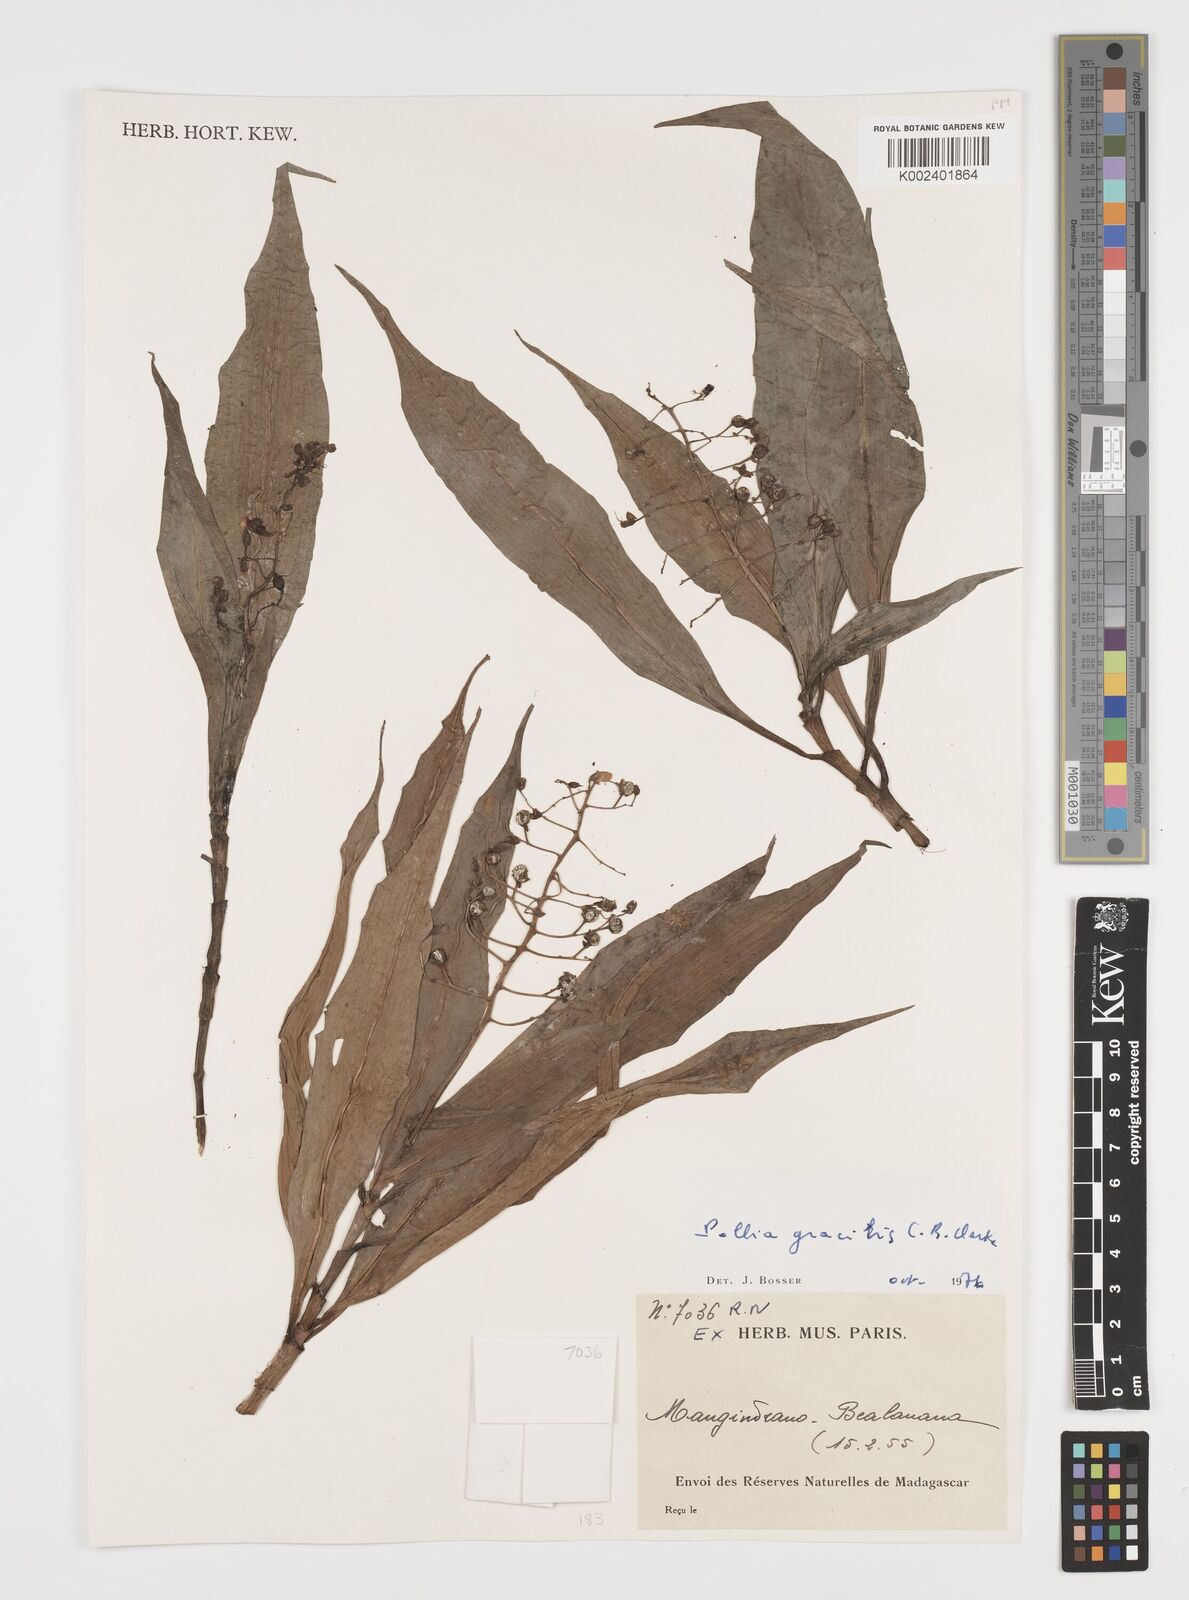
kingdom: Plantae
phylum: Tracheophyta
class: Liliopsida
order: Commelinales
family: Commelinaceae
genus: Pollia
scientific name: Pollia gracilis
